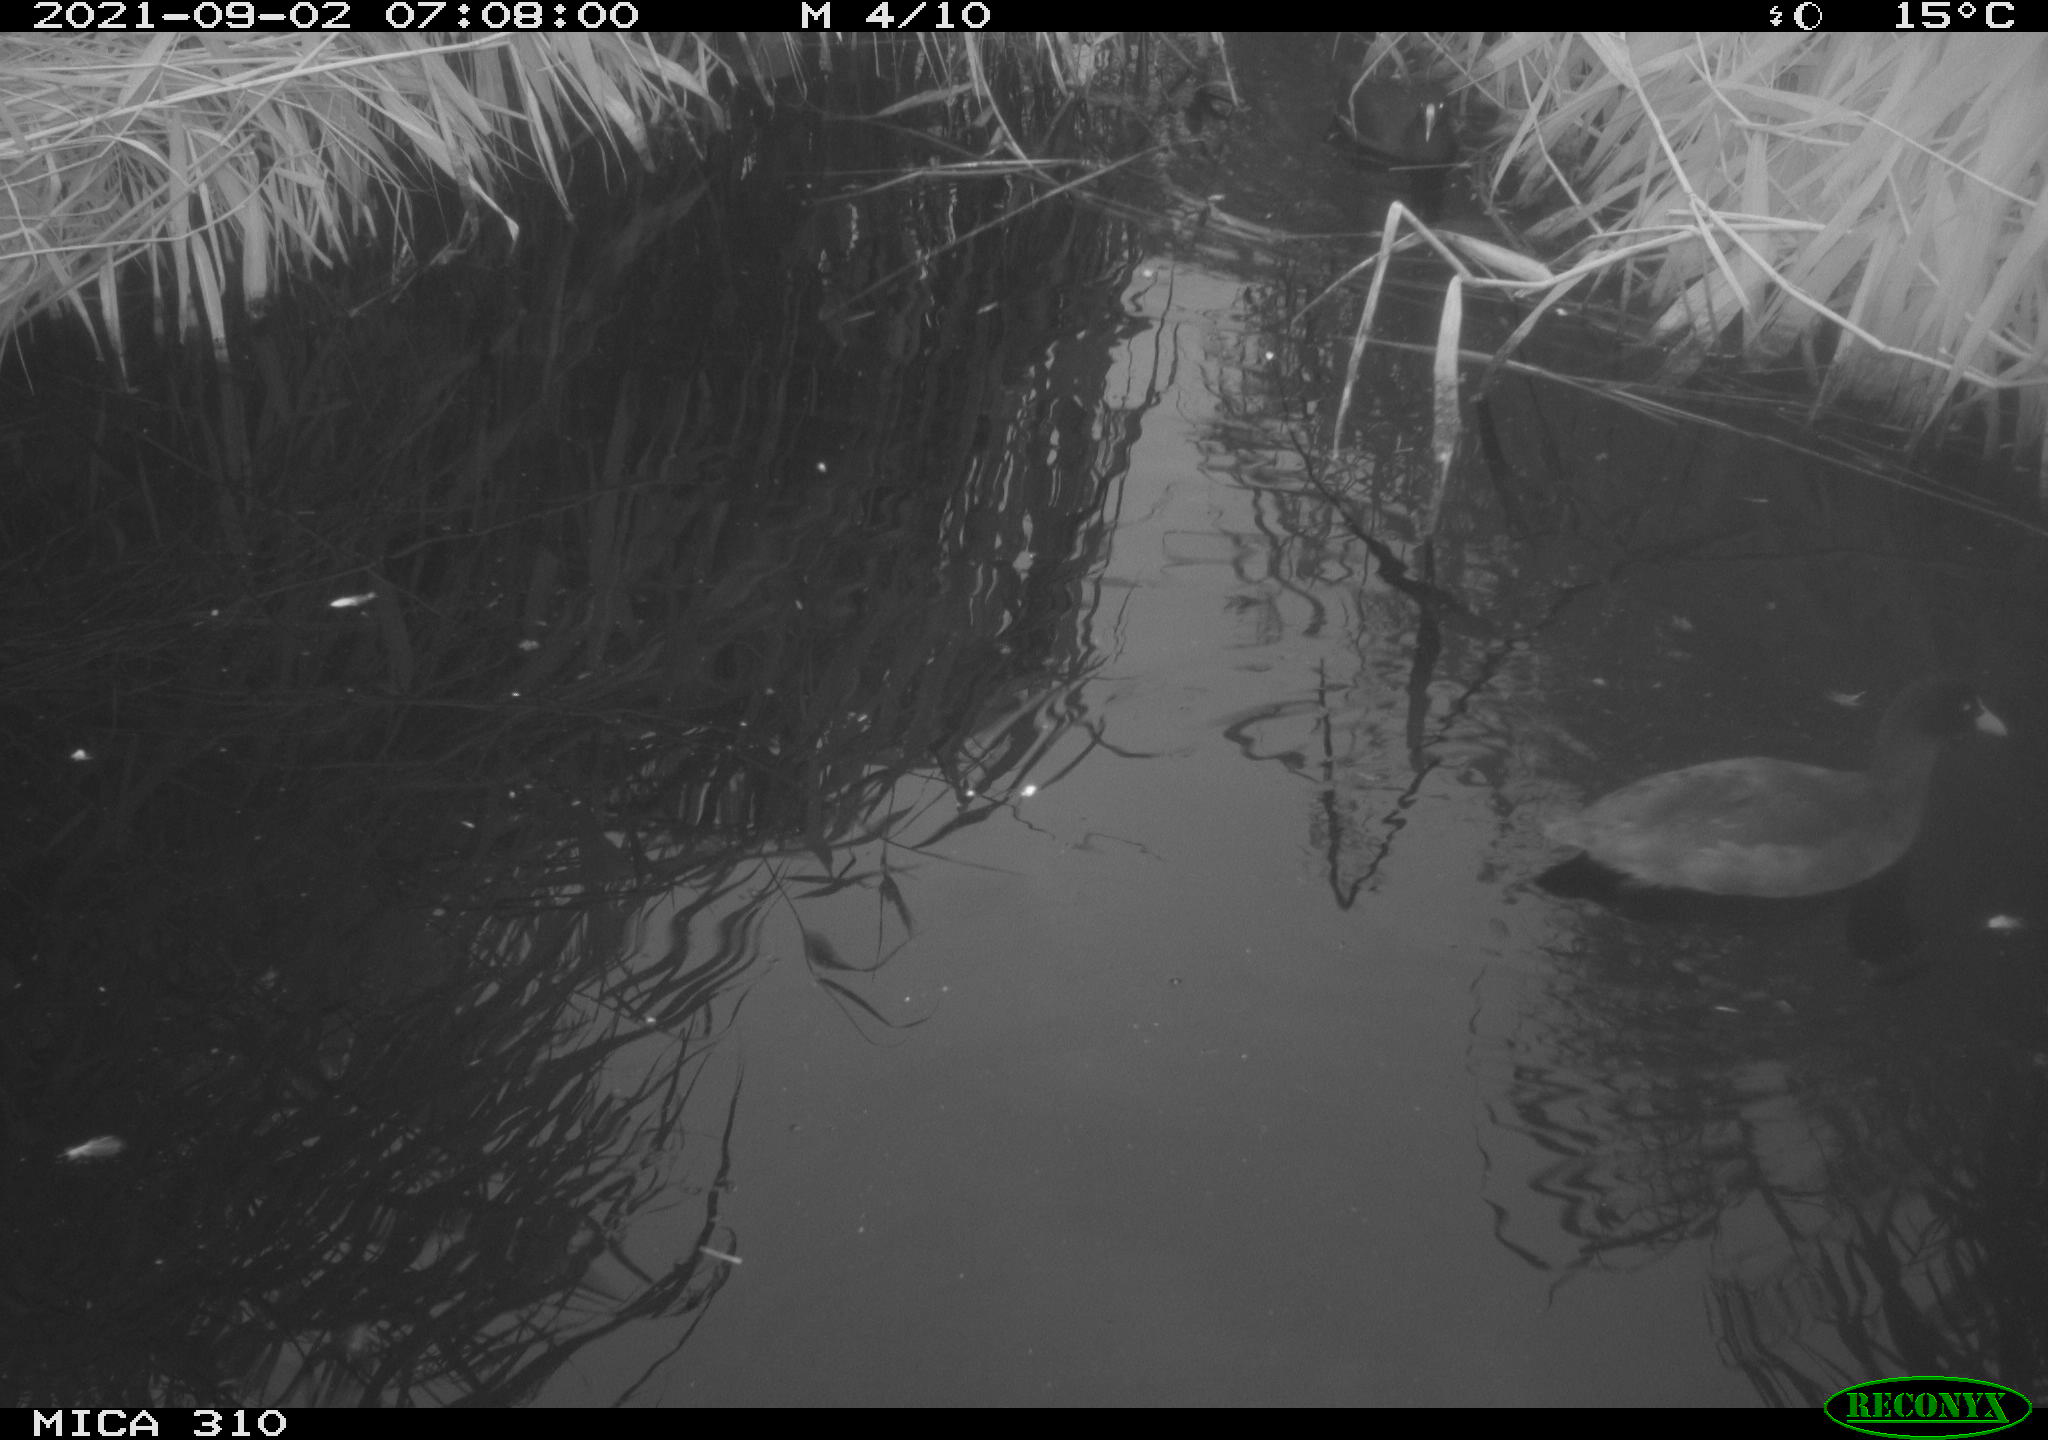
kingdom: Animalia
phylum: Chordata
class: Aves
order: Gruiformes
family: Rallidae
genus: Gallinula
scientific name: Gallinula chloropus
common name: Common moorhen
